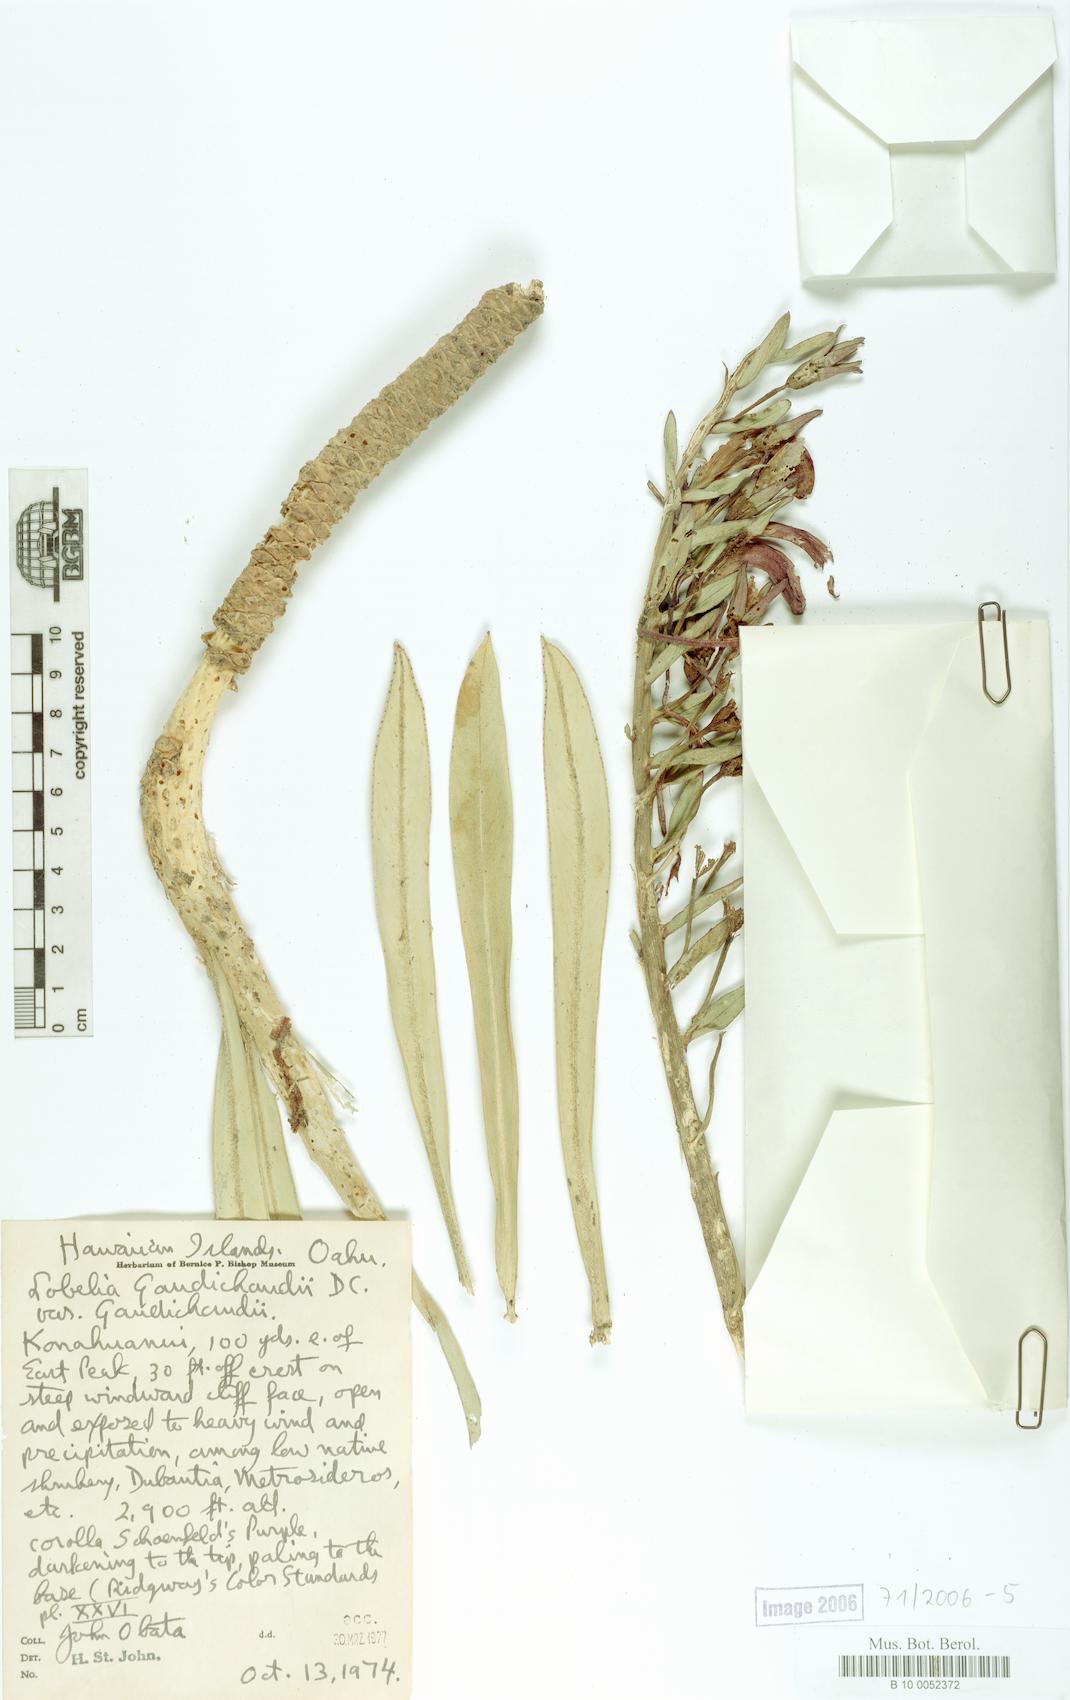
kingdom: Plantae
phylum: Tracheophyta
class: Magnoliopsida
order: Asterales
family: Campanulaceae
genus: Lobelia
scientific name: Lobelia gaudichaudii
